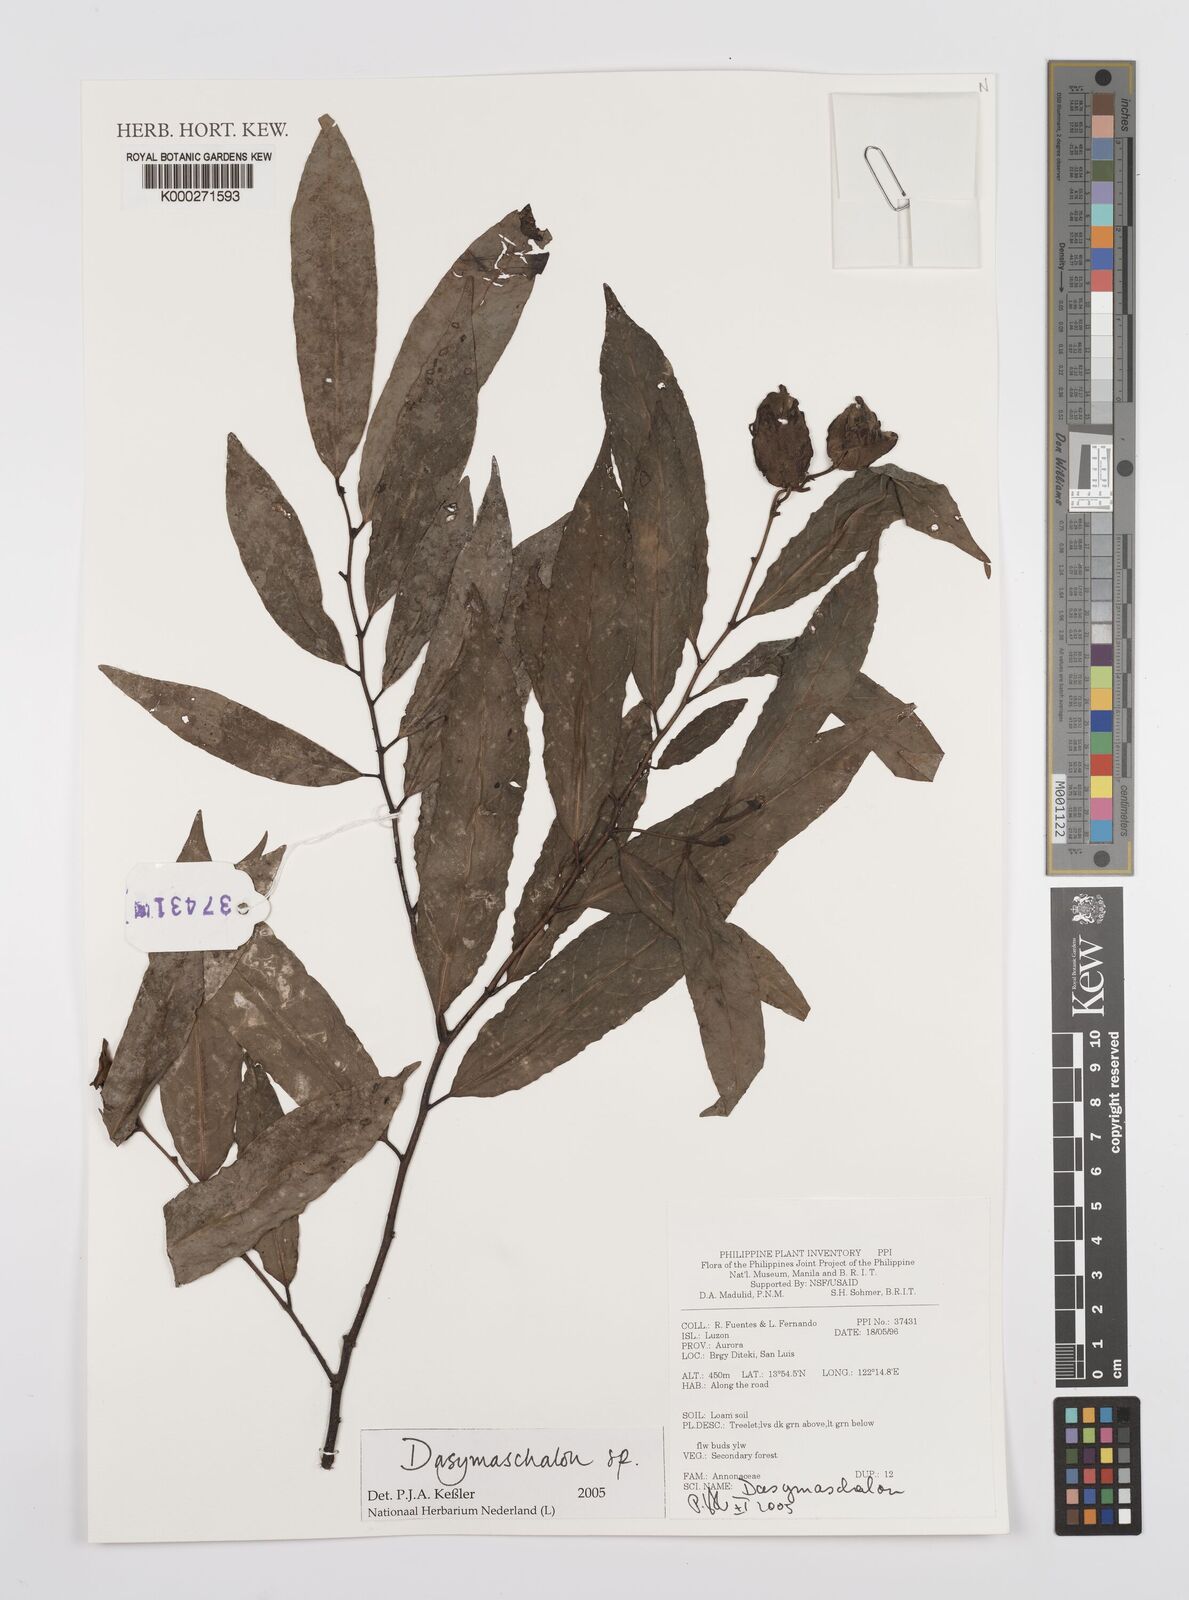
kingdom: Plantae
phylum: Tracheophyta
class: Magnoliopsida
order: Magnoliales
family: Annonaceae
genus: Dasymaschalon
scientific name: Dasymaschalon
